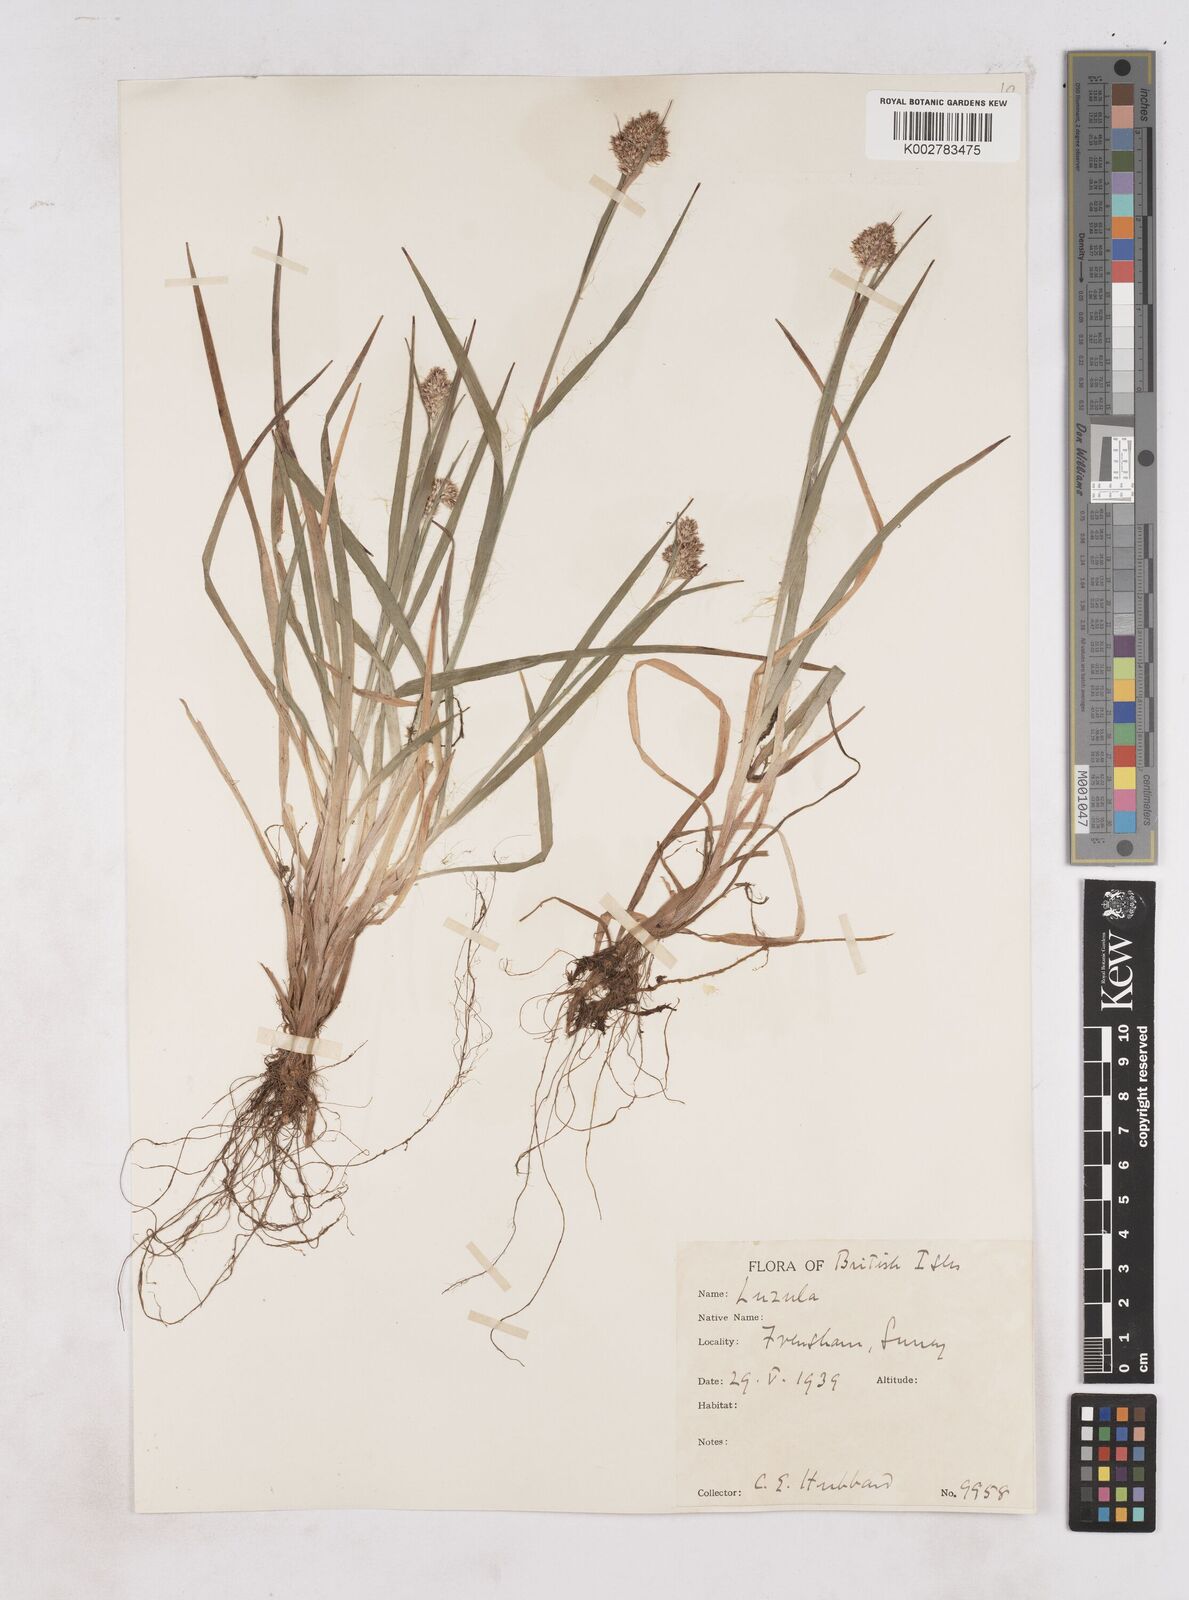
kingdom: Plantae
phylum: Tracheophyta
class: Liliopsida
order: Poales
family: Juncaceae
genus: Luzula
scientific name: Luzula campestris
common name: Field wood-rush
